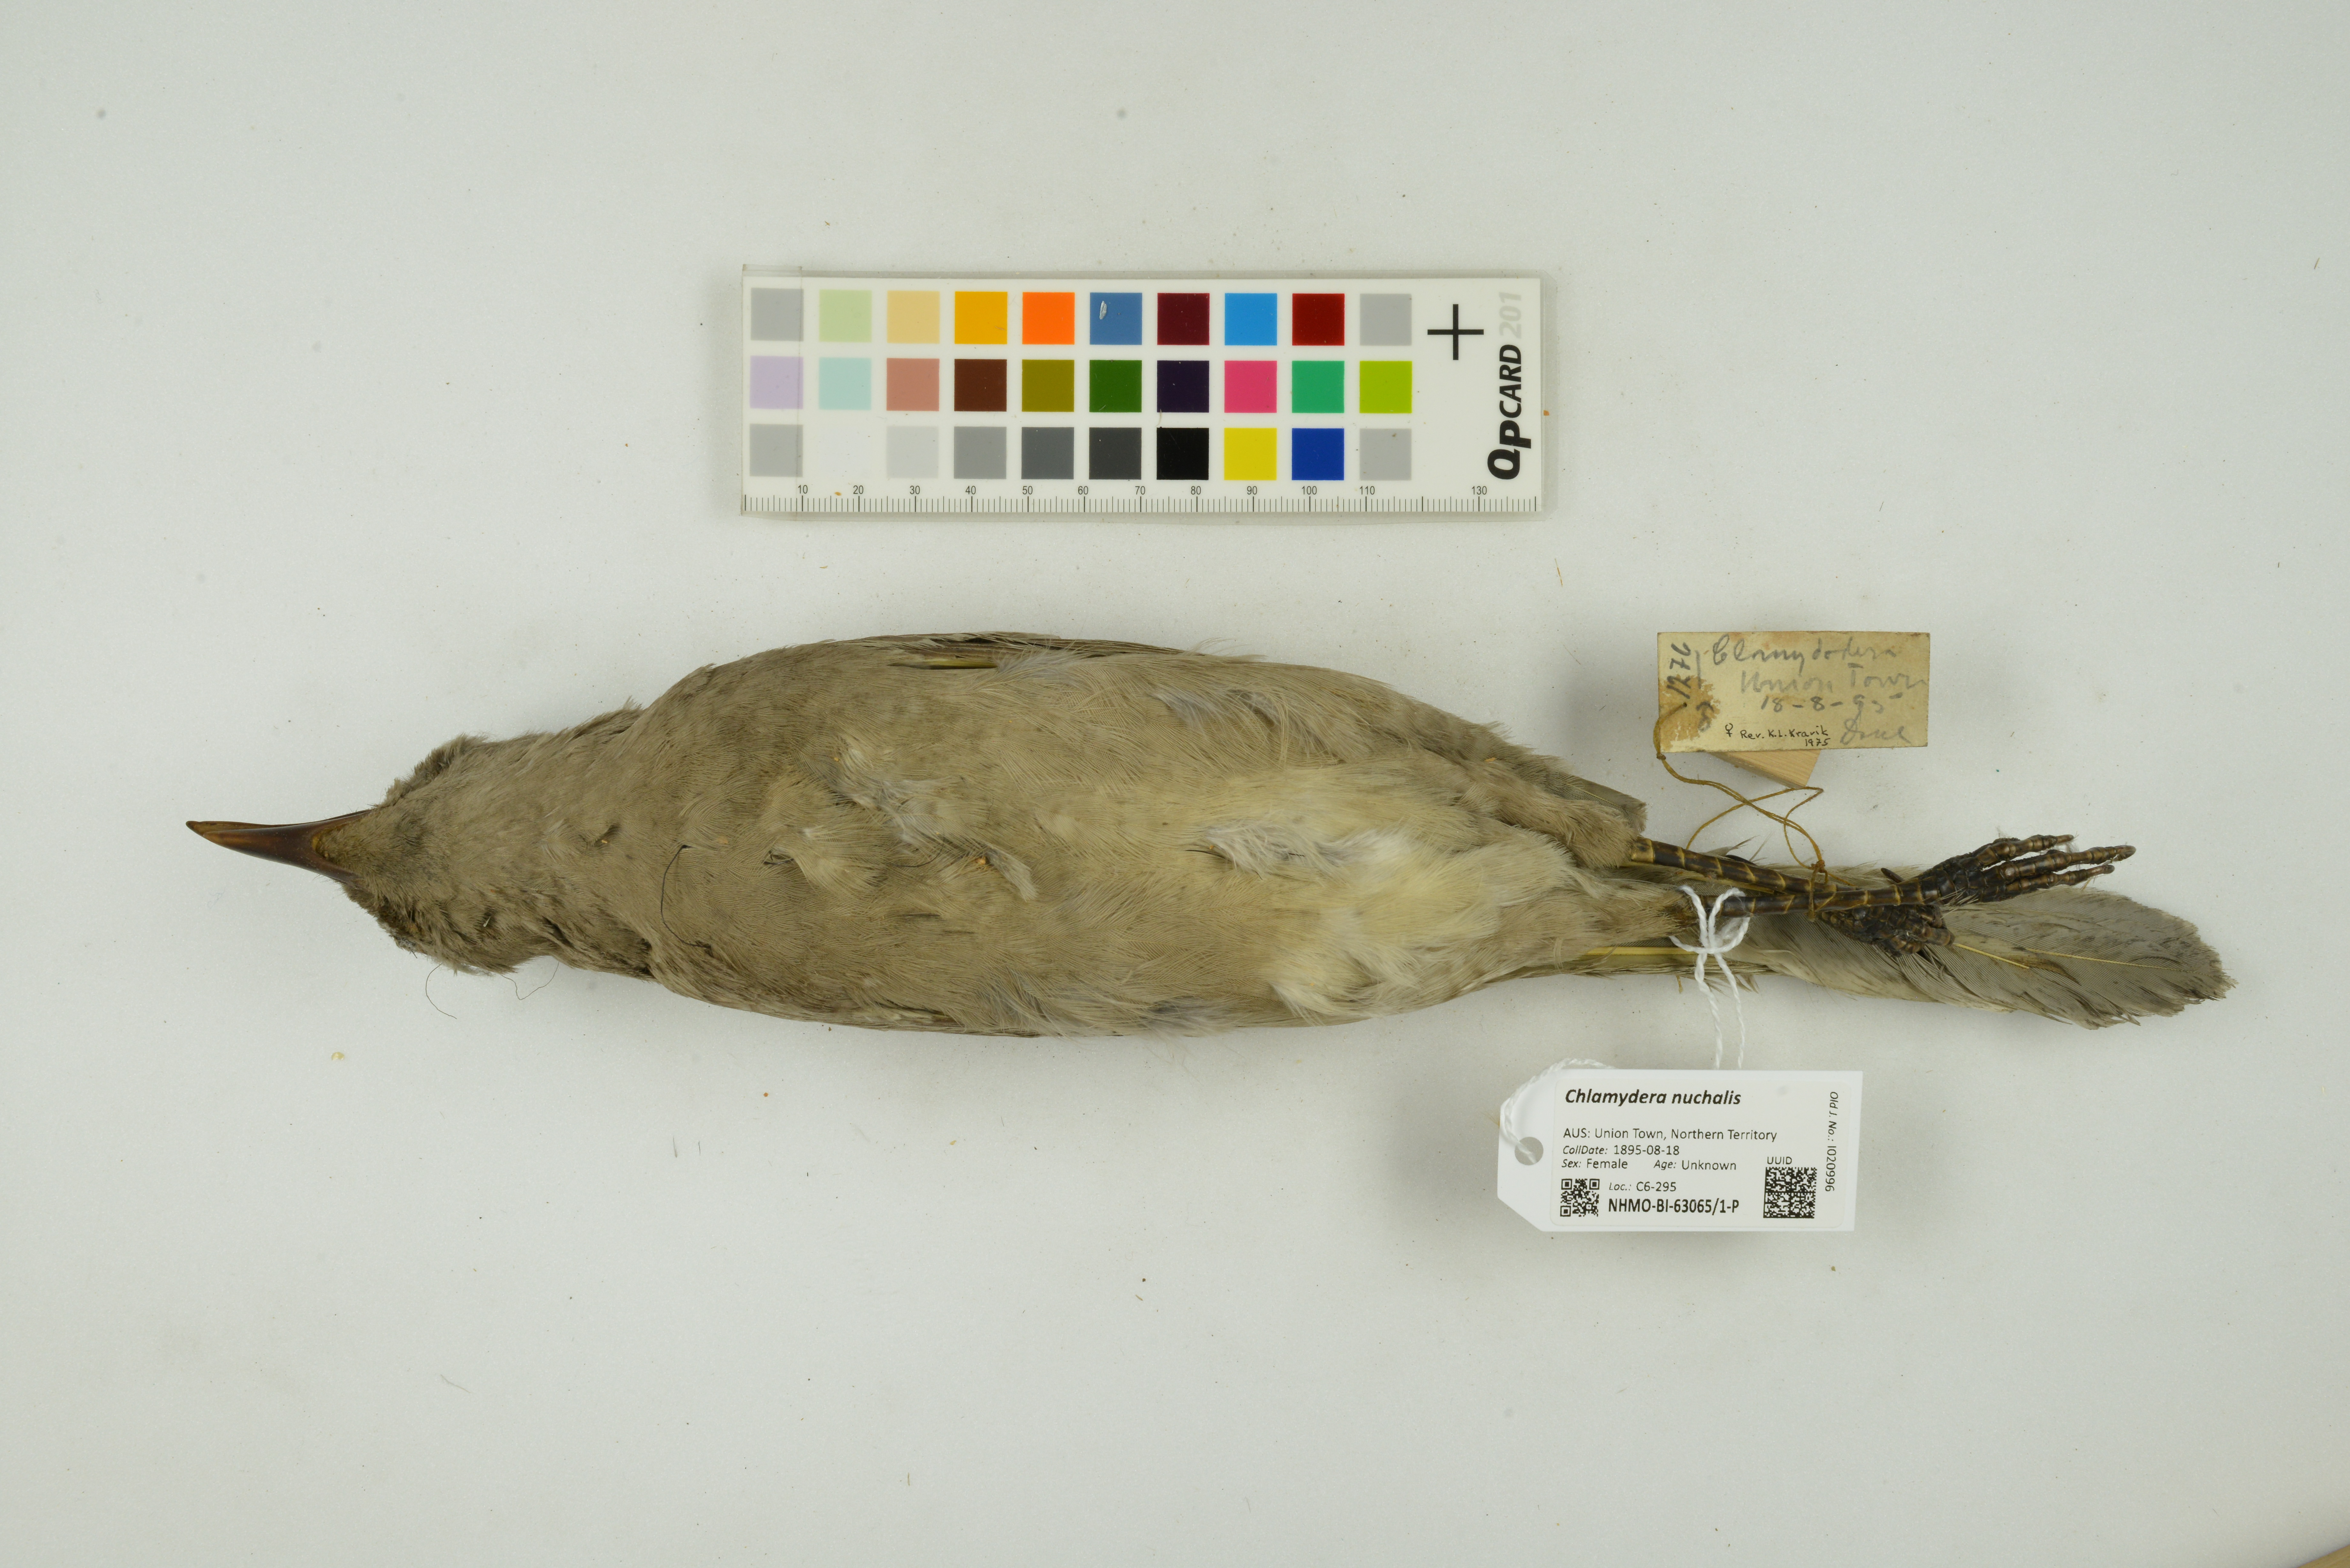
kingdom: Animalia
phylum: Chordata
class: Aves
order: Passeriformes
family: Ptilonorhynchidae
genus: Chlamydera
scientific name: Chlamydera nuchalis
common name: Great bowerbird
